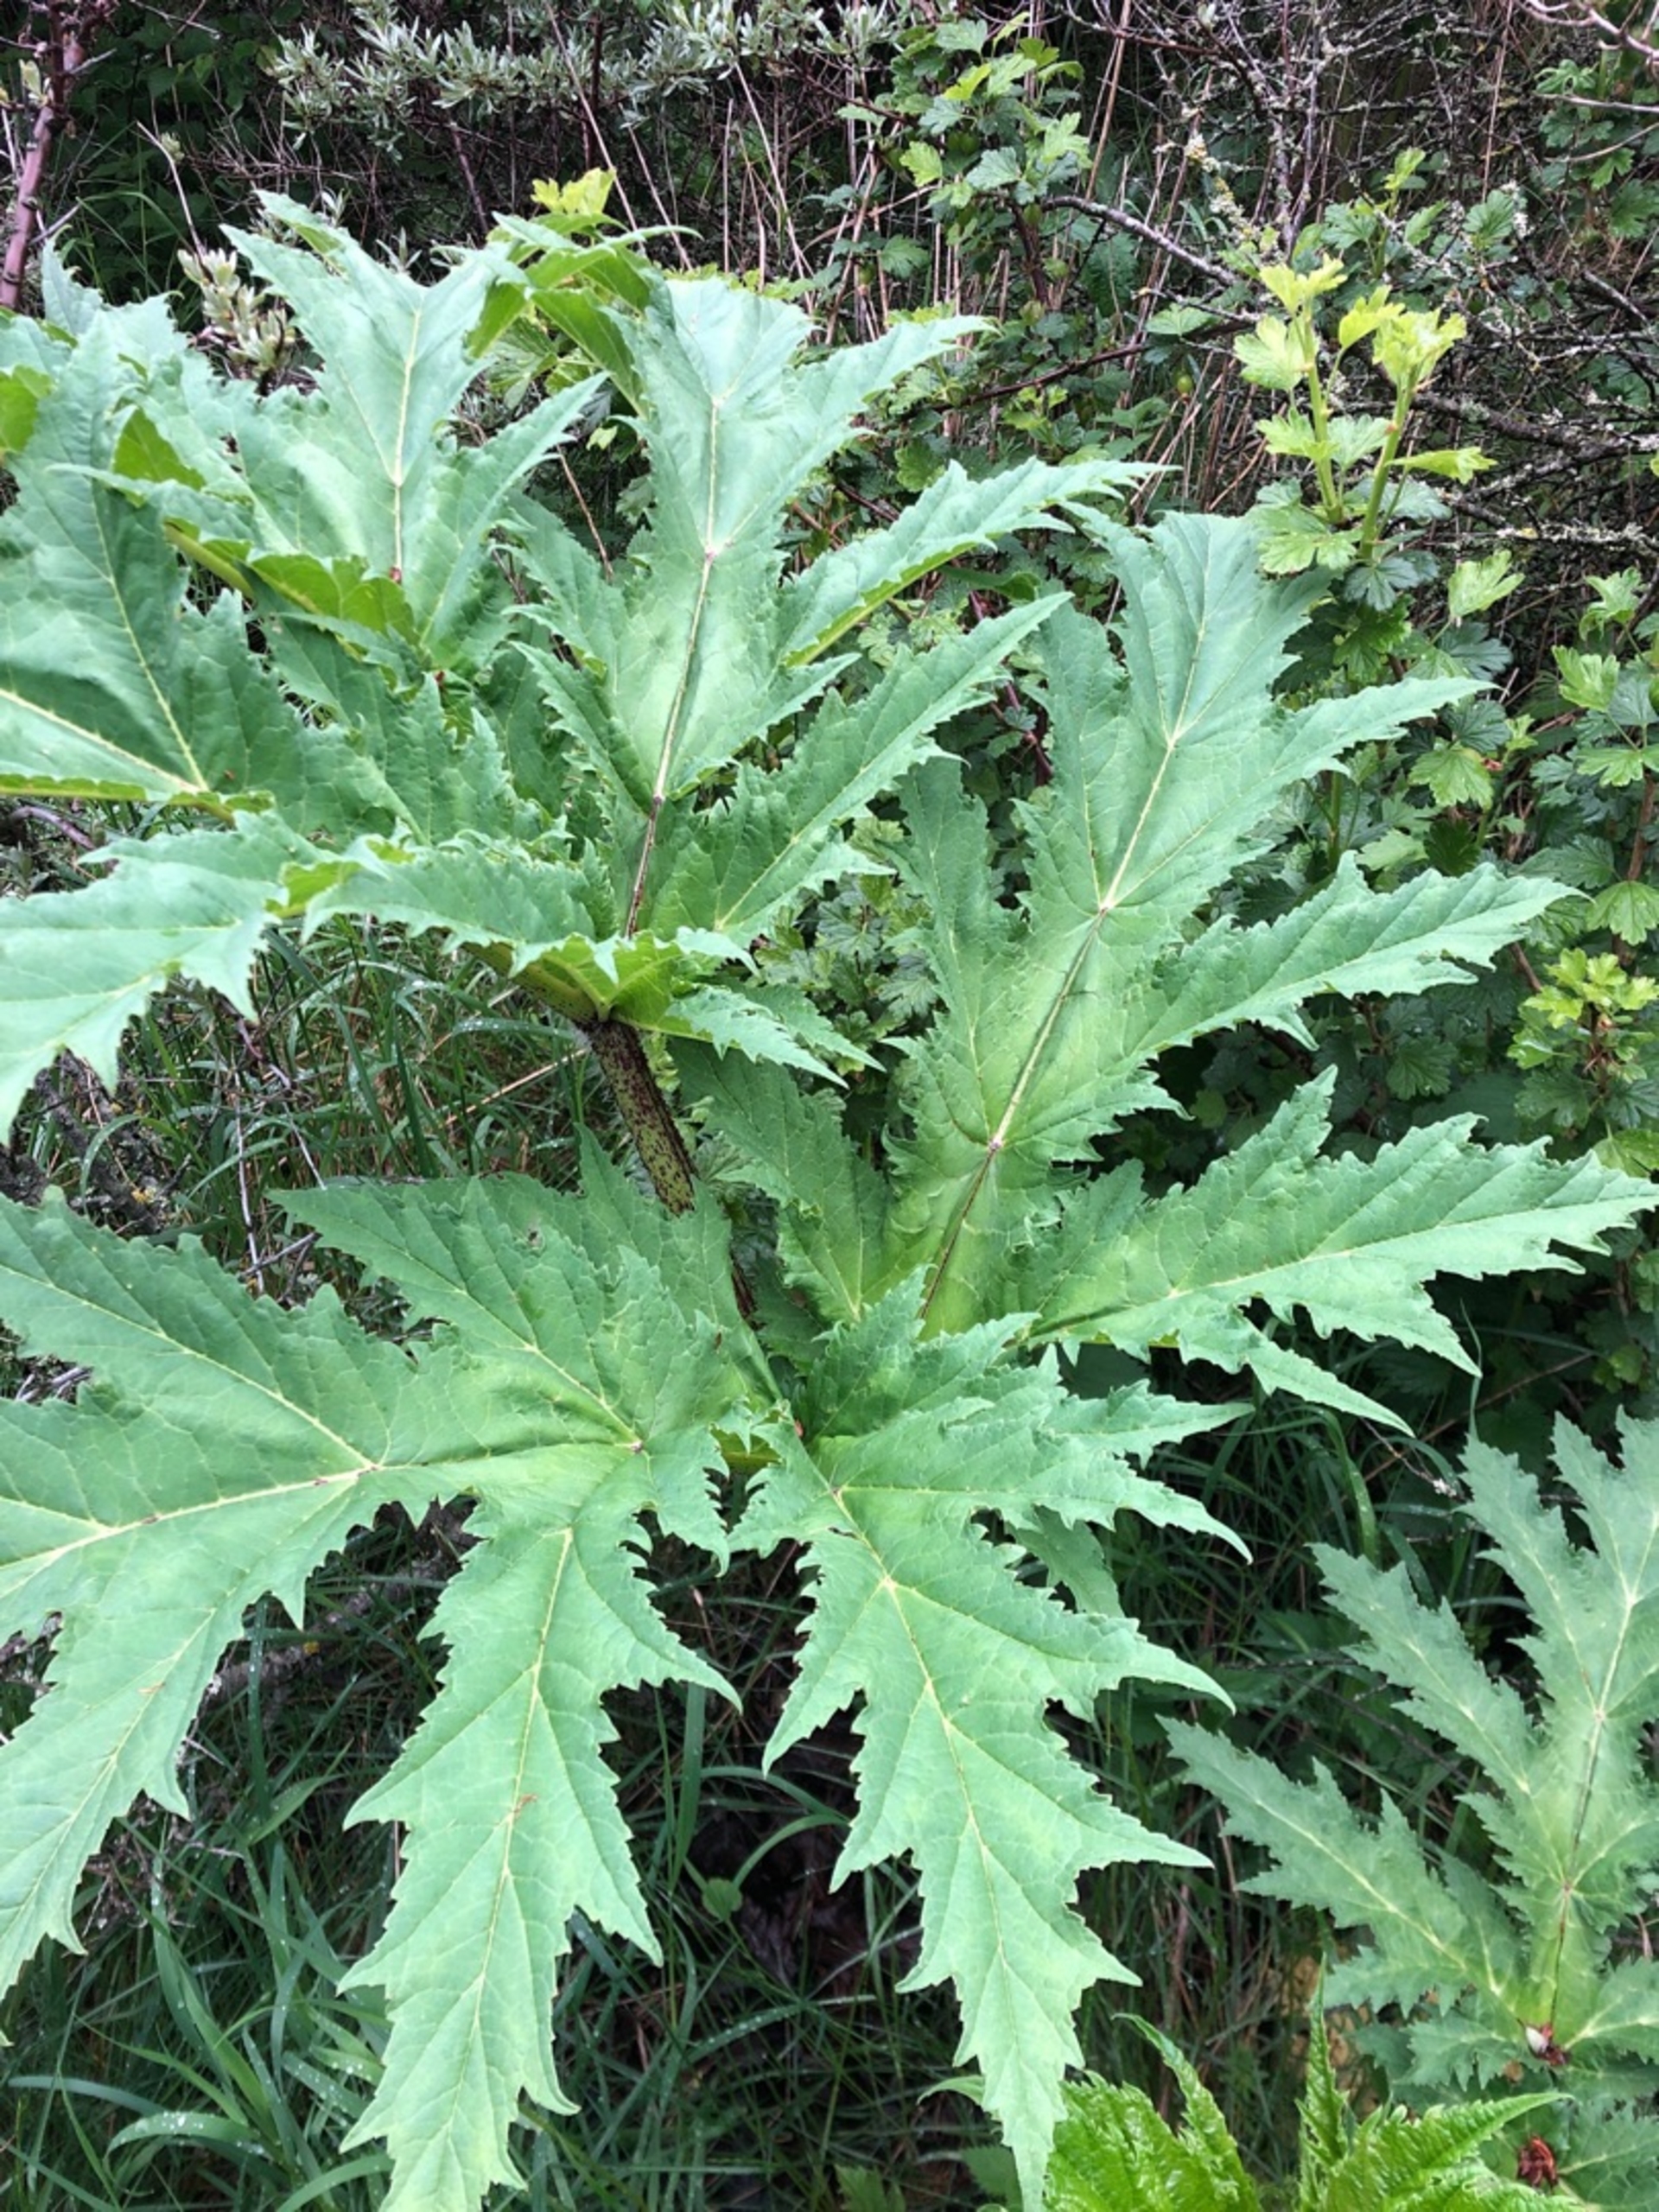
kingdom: Plantae
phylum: Tracheophyta
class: Magnoliopsida
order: Apiales
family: Apiaceae
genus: Heracleum
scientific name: Heracleum mantegazzianum
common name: Kæmpe-bjørneklo
